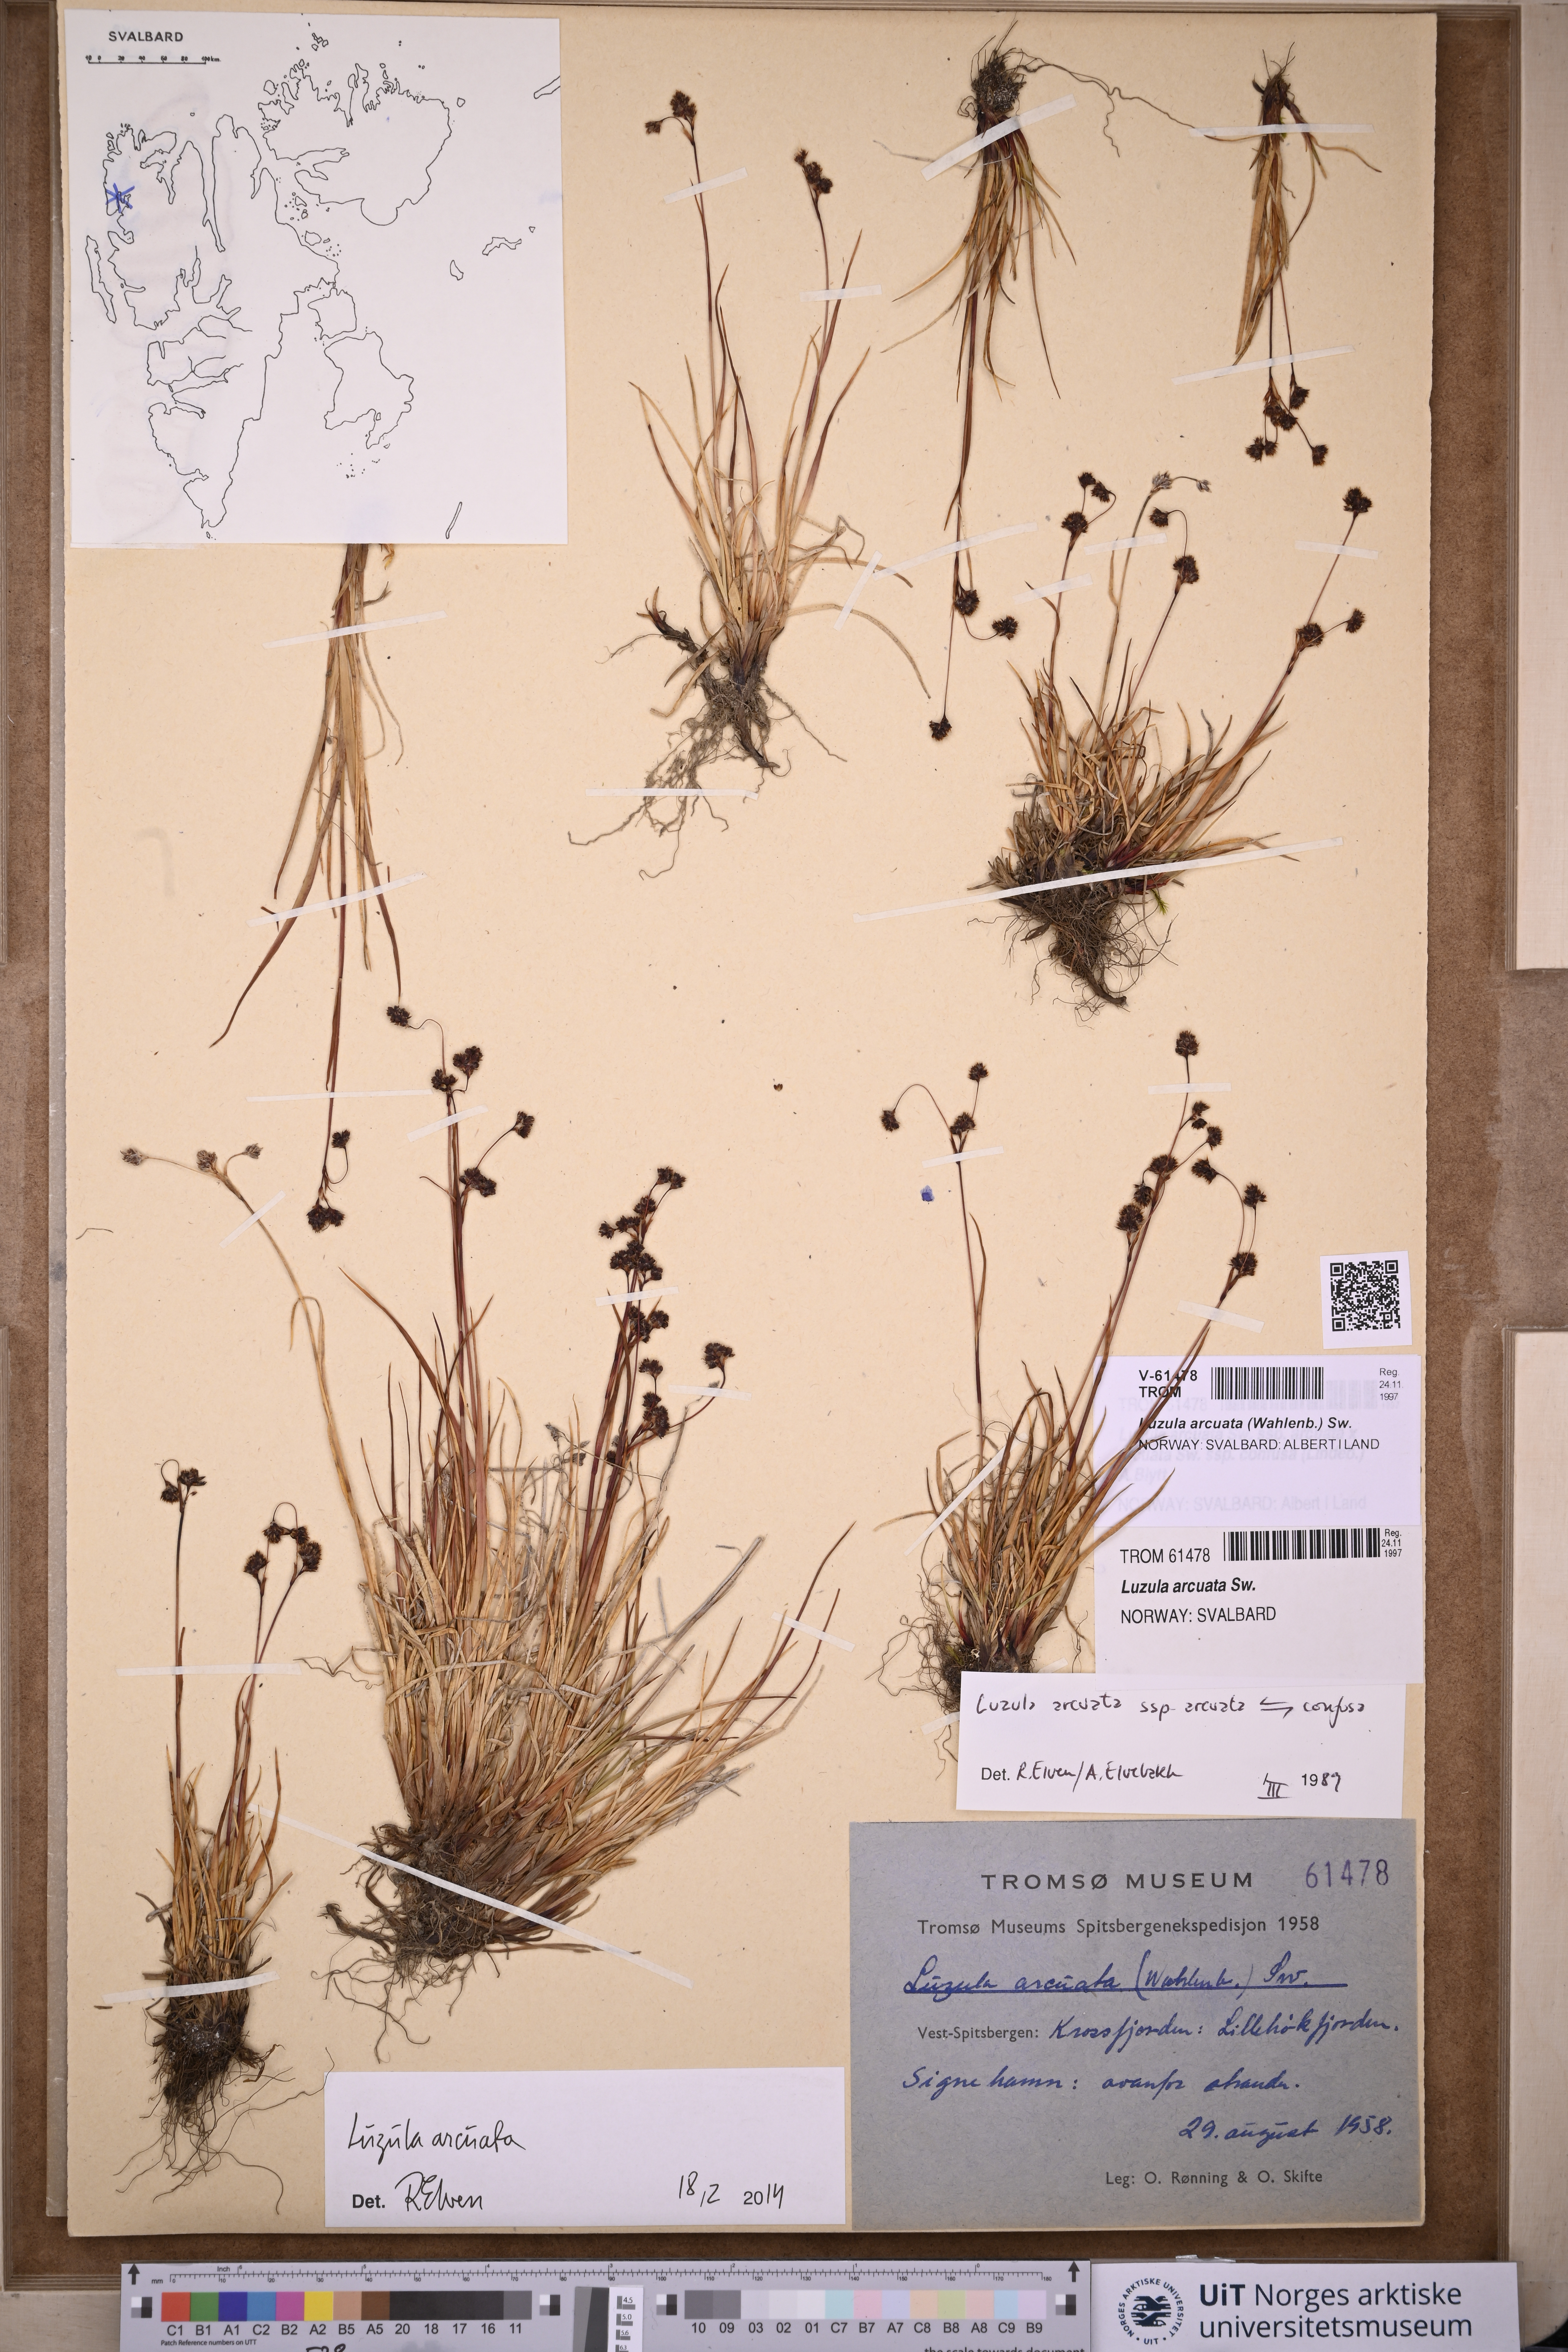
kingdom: Plantae
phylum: Tracheophyta
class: Liliopsida
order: Poales
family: Juncaceae
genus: Luzula
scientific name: Luzula arcuata
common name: Curved wood-rush
